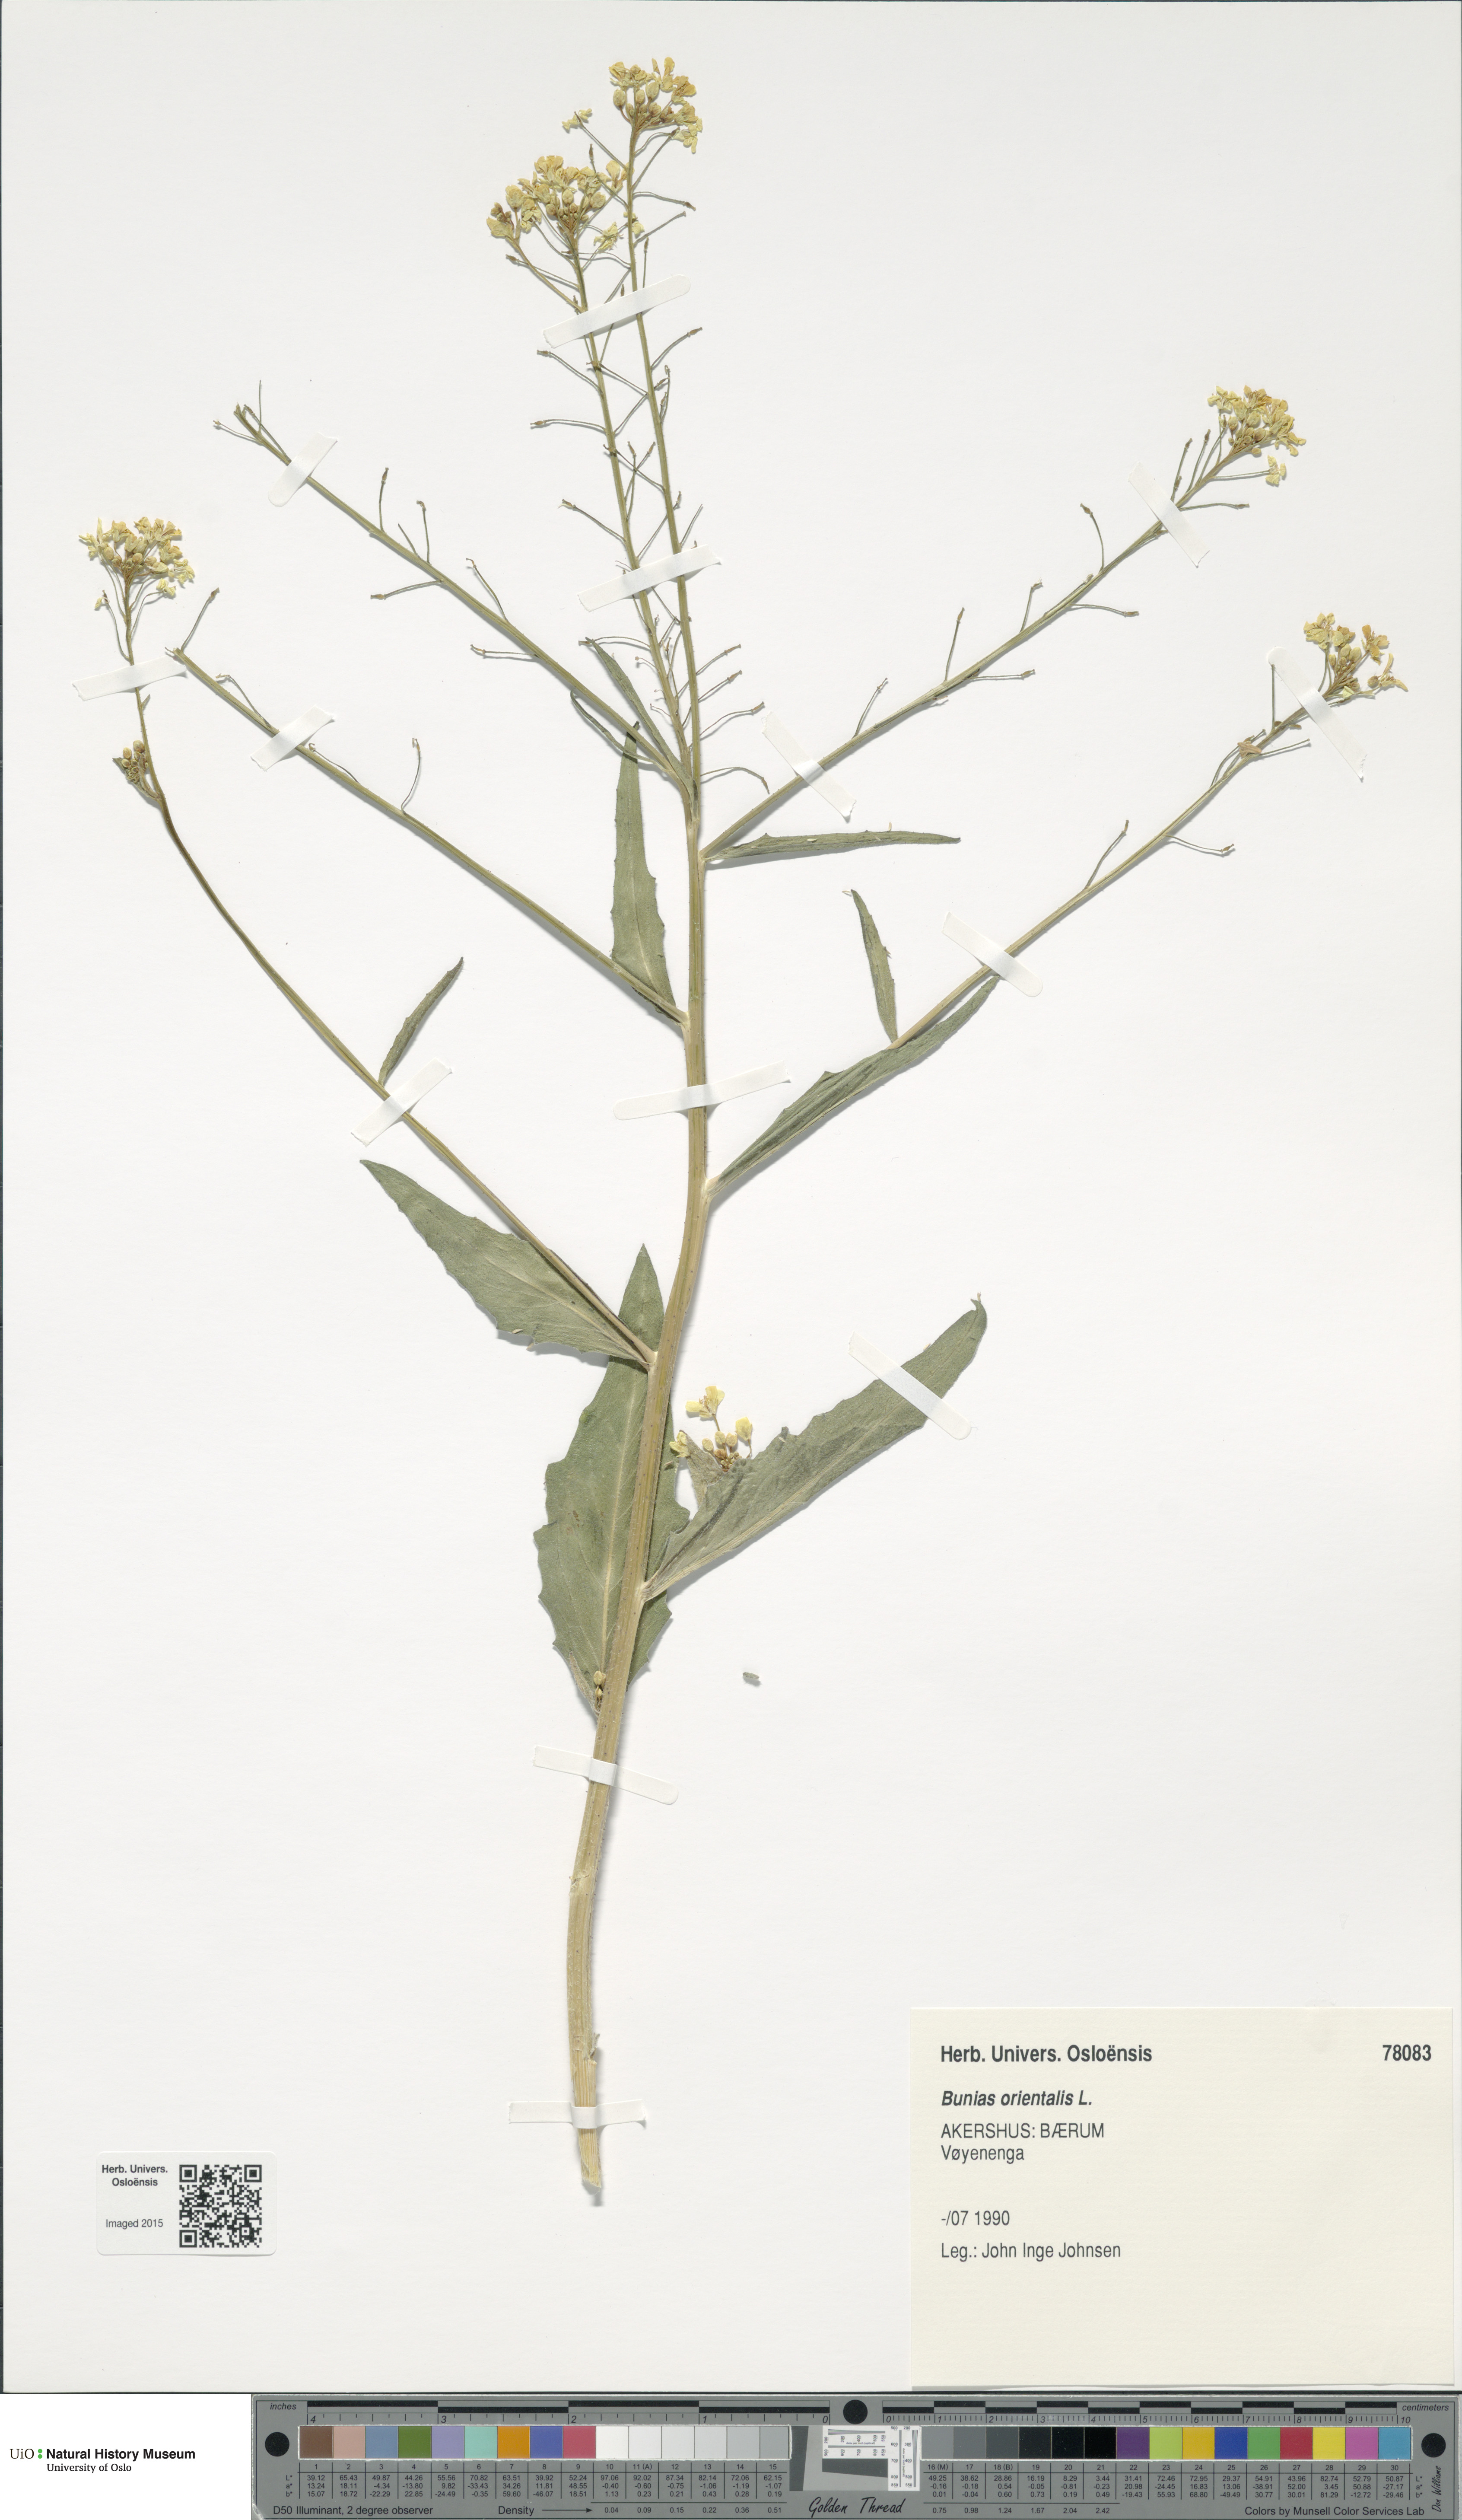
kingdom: Plantae
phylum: Tracheophyta
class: Magnoliopsida
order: Brassicales
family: Brassicaceae
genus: Bunias
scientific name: Bunias orientalis
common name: Warty-cabbage
